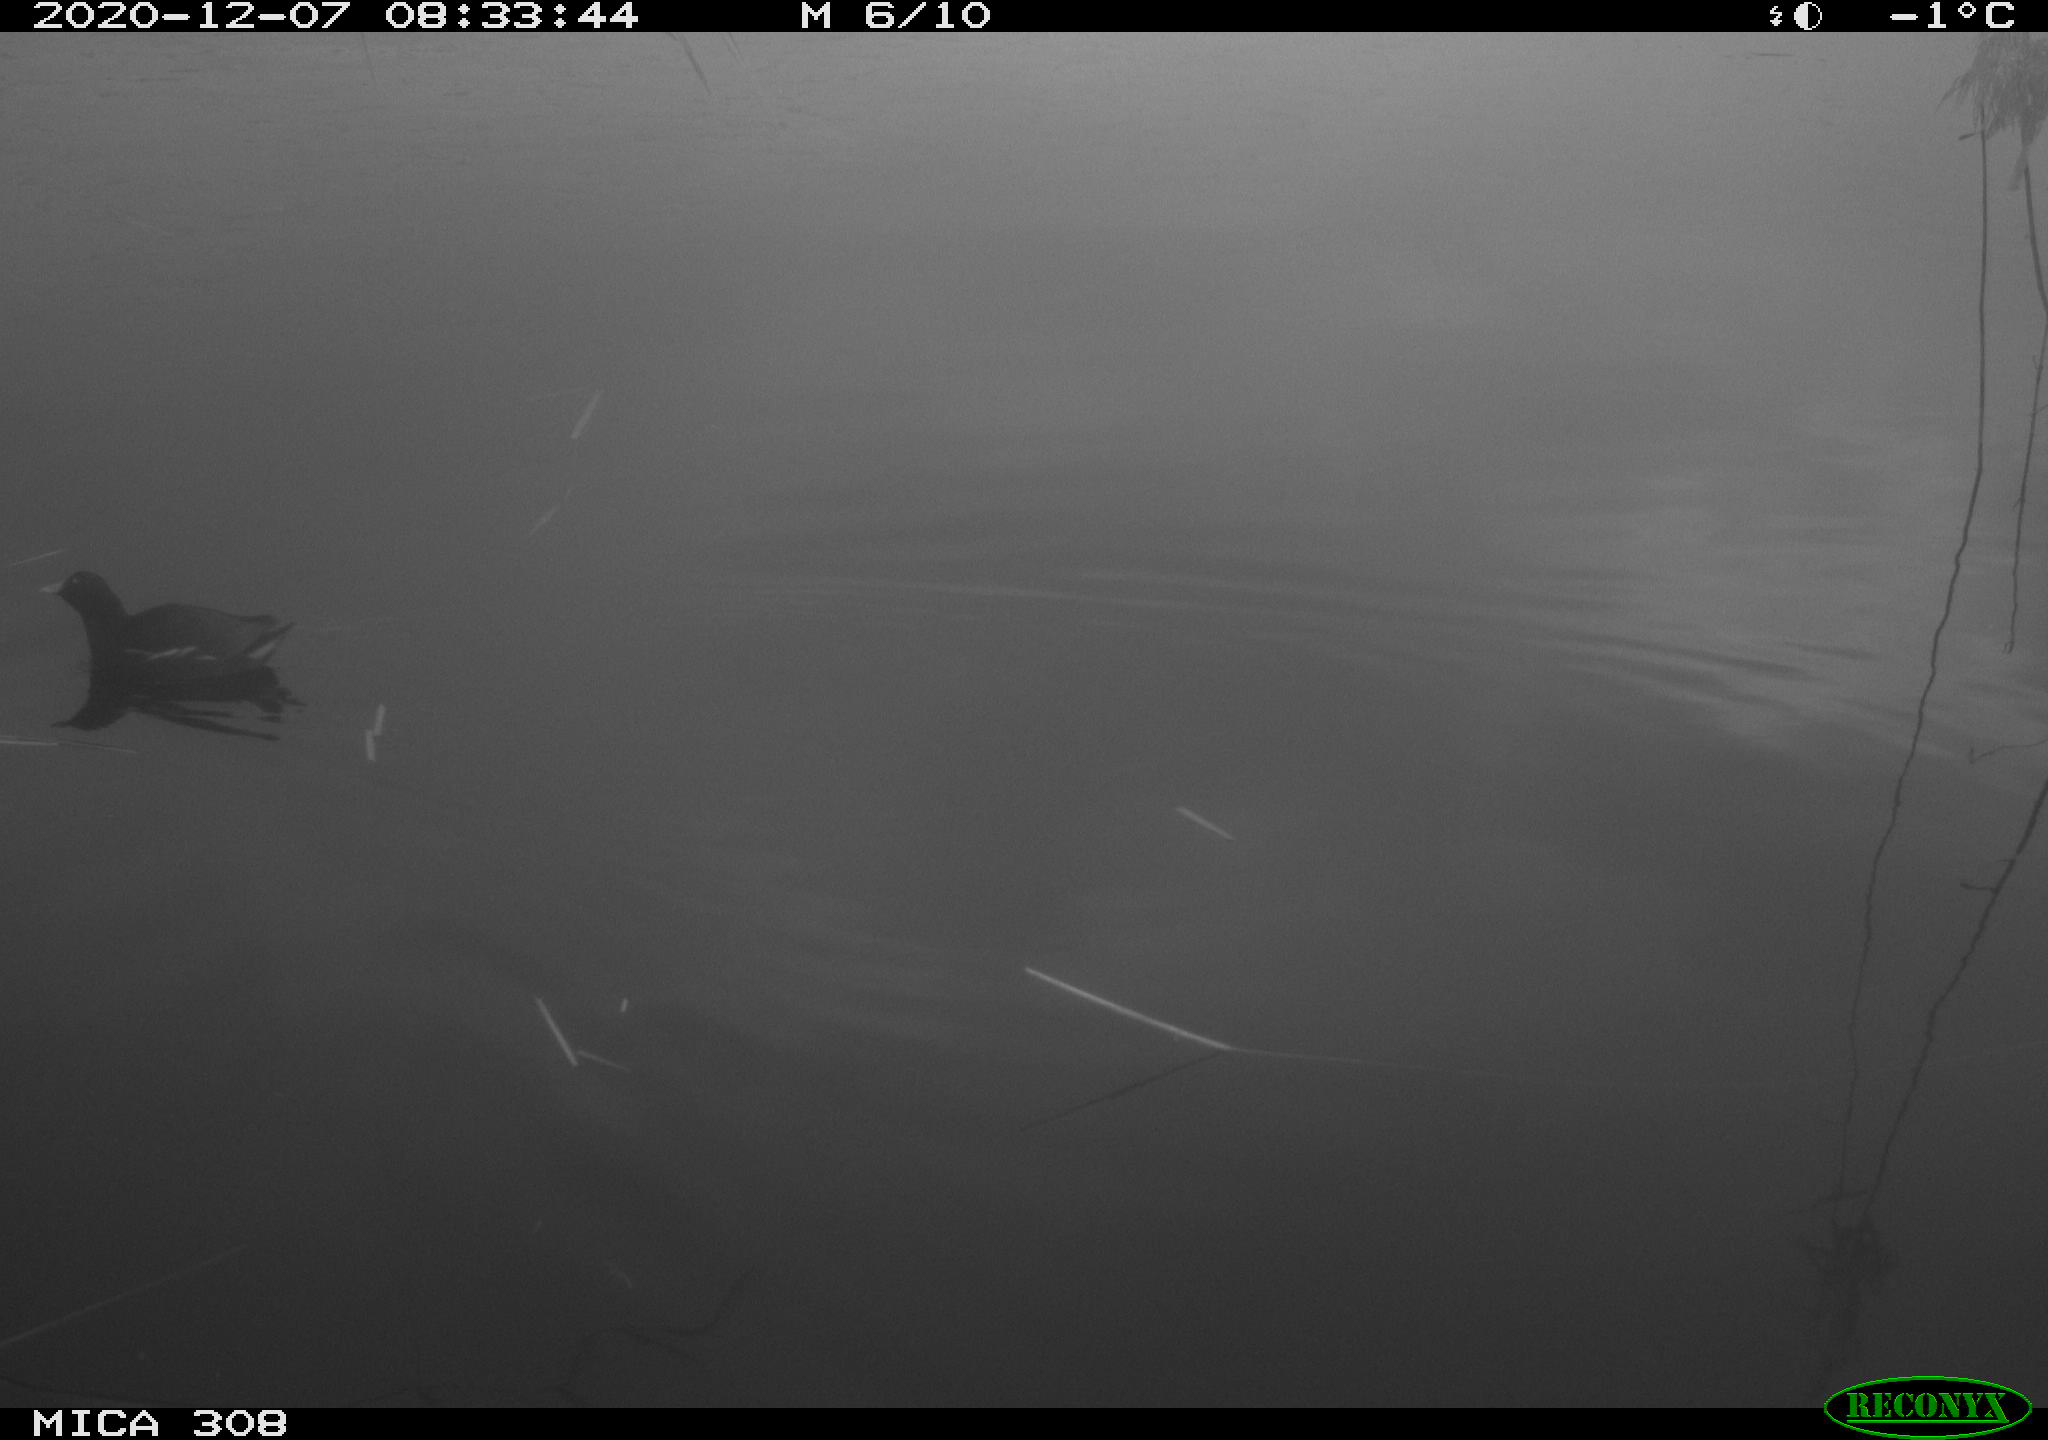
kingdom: Animalia
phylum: Chordata
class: Aves
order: Gruiformes
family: Rallidae
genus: Gallinula
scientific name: Gallinula chloropus
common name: Common moorhen
